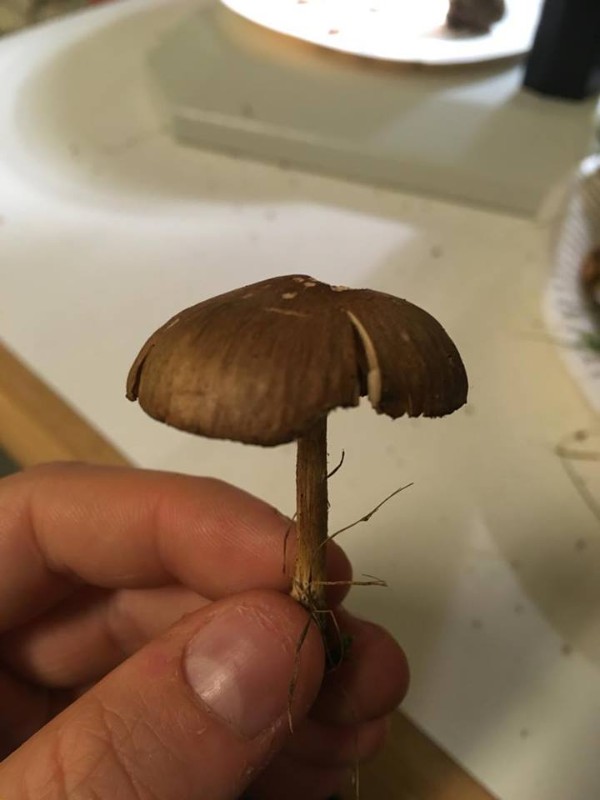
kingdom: Fungi
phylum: Basidiomycota
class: Agaricomycetes
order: Agaricales
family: Omphalotaceae
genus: Collybiopsis
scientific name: Collybiopsis peronata
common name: bestøvlet fladhat
